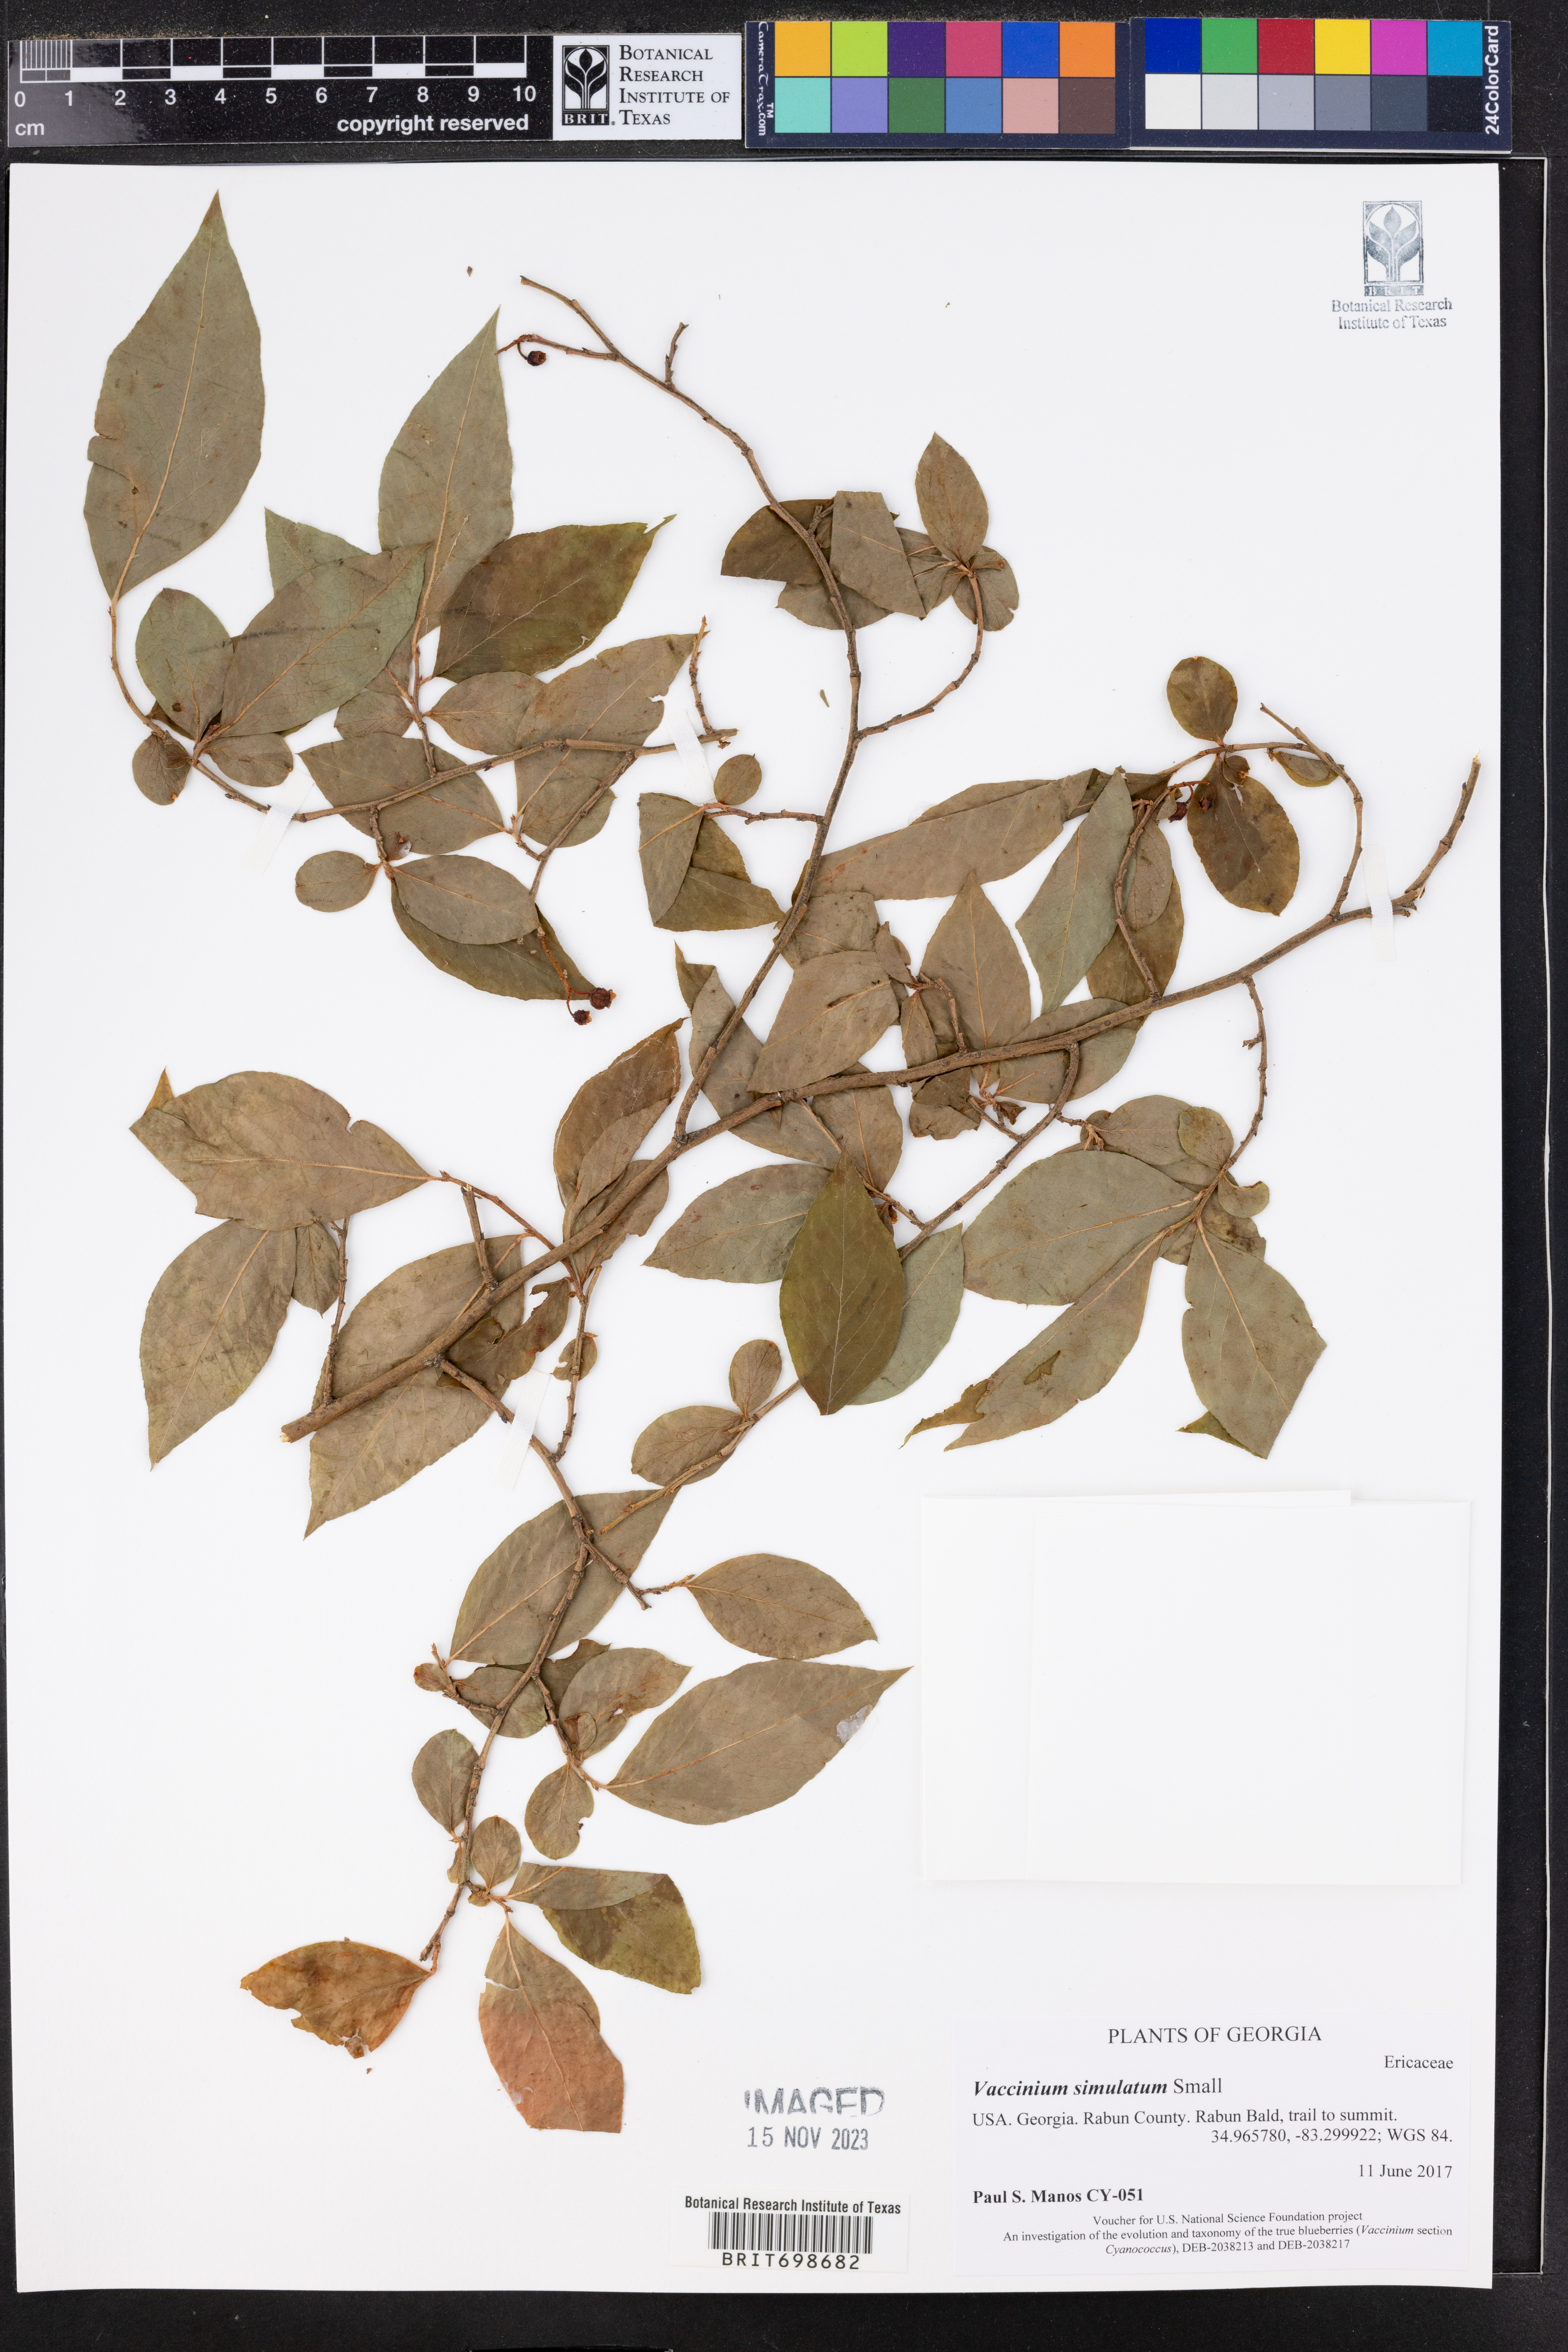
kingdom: Plantae
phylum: Tracheophyta
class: Magnoliopsida
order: Ericales
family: Ericaceae
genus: Vaccinium
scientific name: Vaccinium corymbosum
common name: Blueberry
